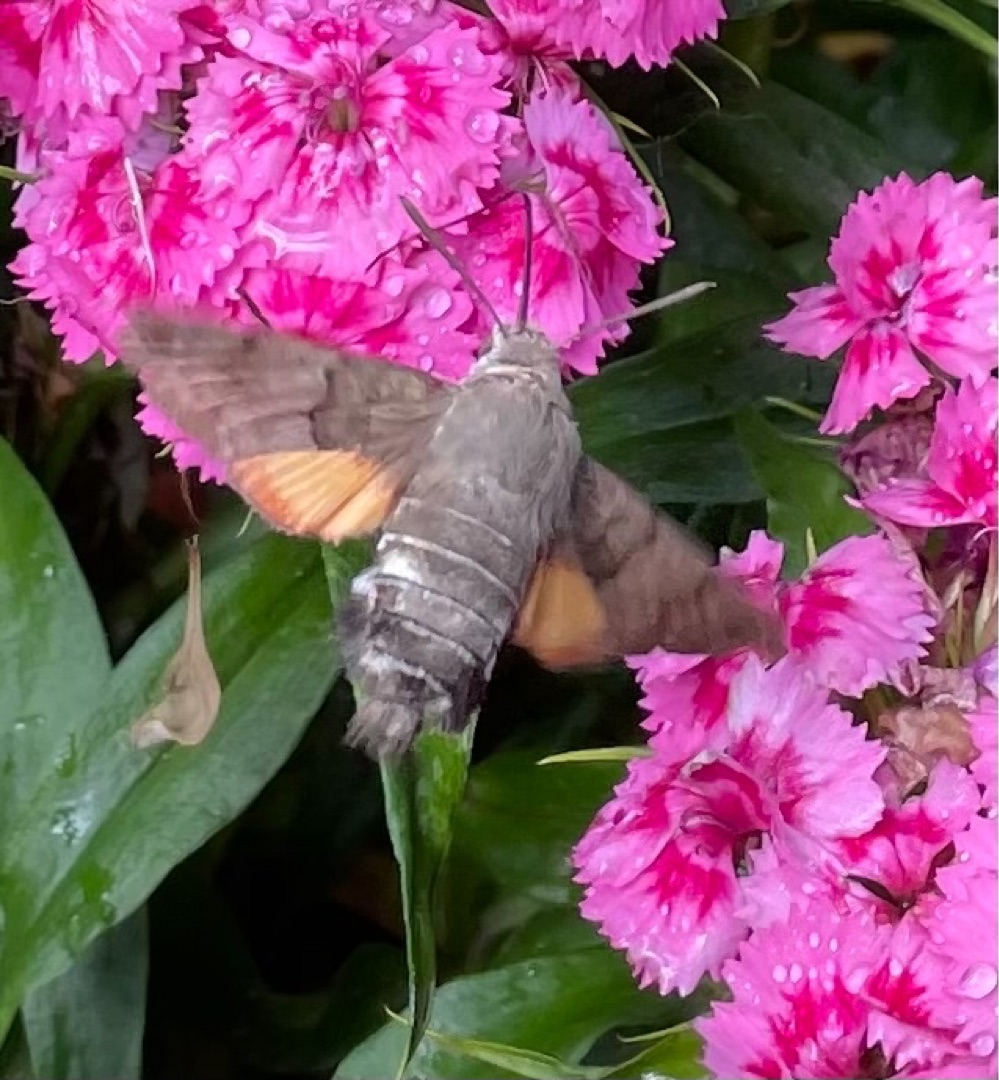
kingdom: Animalia
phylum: Arthropoda
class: Insecta
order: Lepidoptera
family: Sphingidae
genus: Macroglossum
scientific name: Macroglossum stellatarum
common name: Duehale
